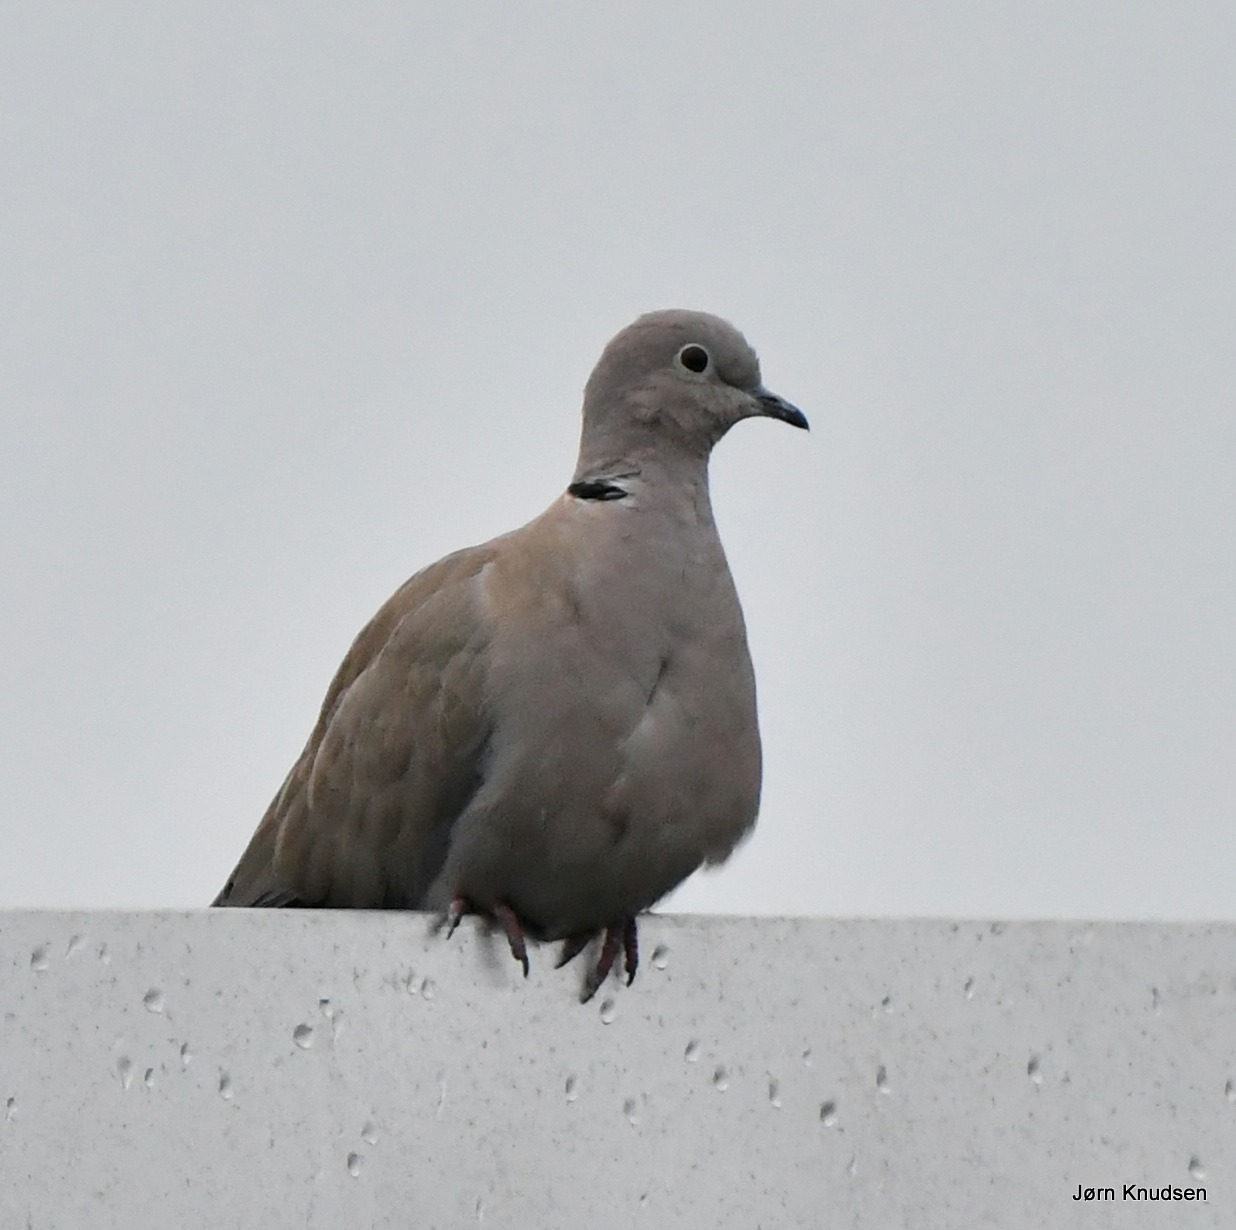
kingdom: Animalia
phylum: Chordata
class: Aves
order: Columbiformes
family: Columbidae
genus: Streptopelia
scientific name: Streptopelia decaocto
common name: Tyrkerdue
